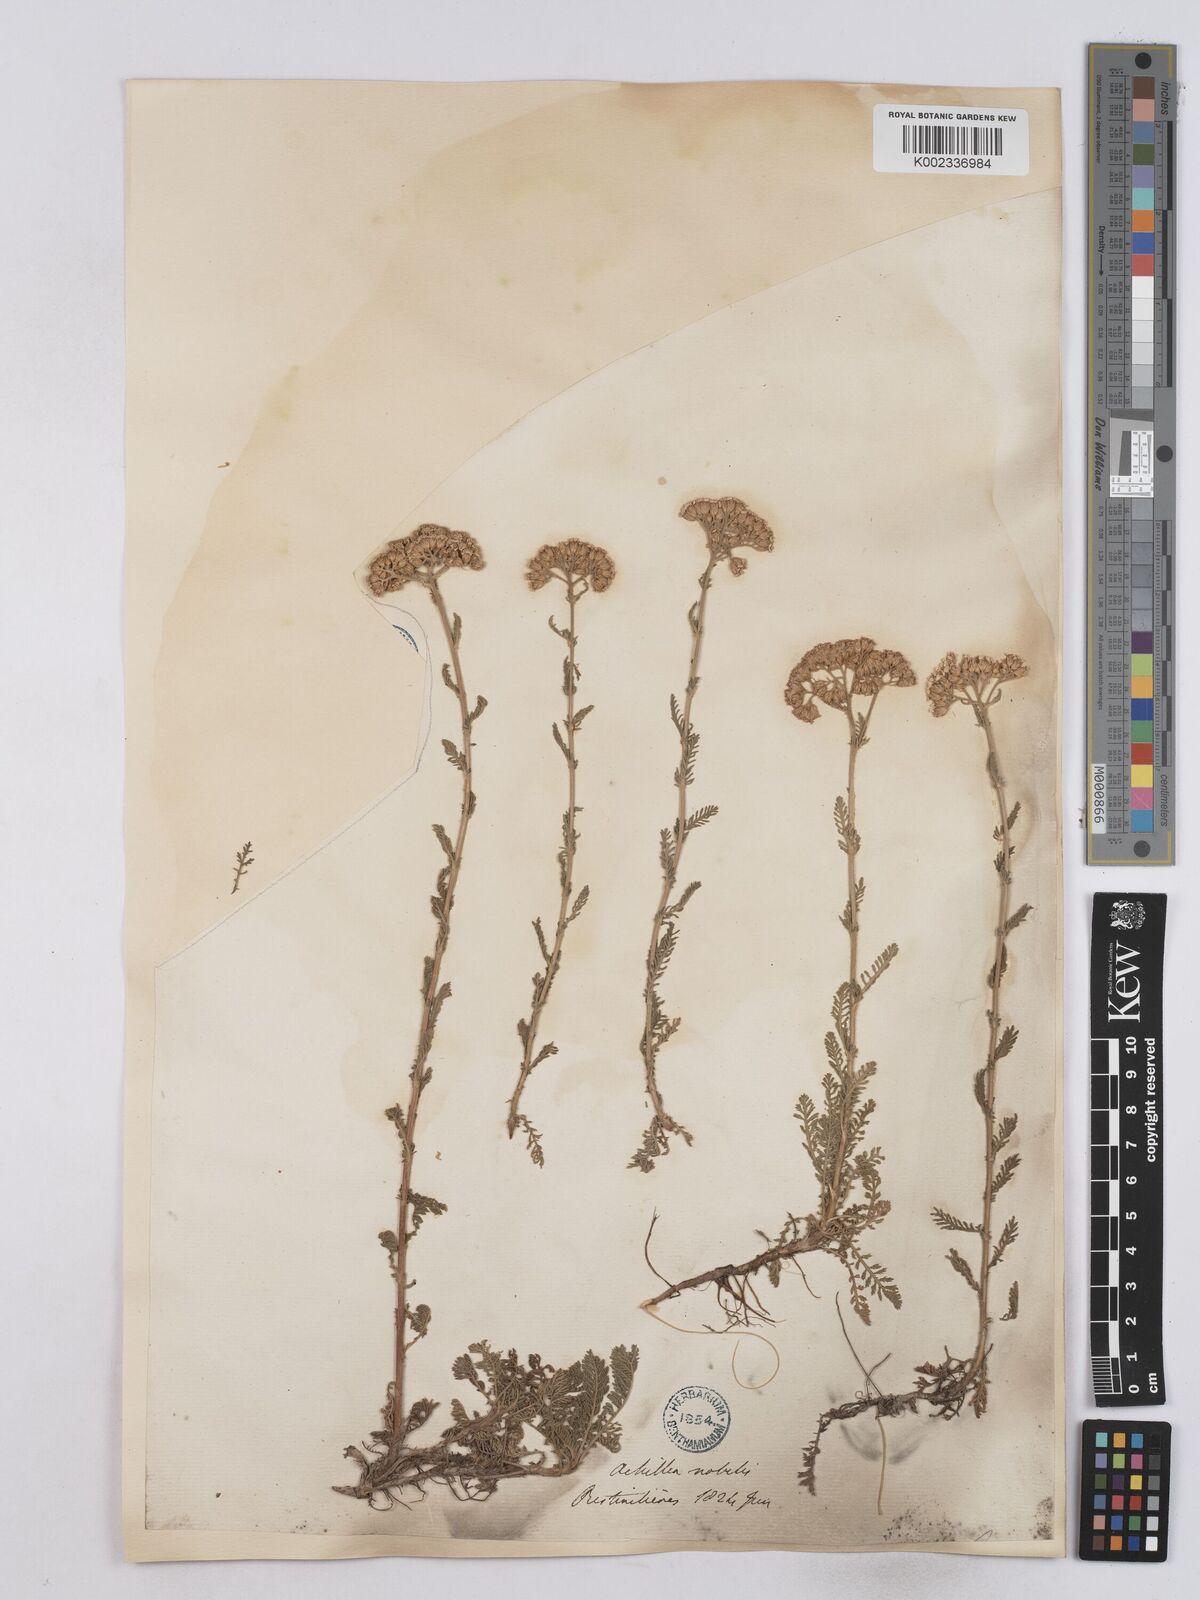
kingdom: Plantae
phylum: Tracheophyta
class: Magnoliopsida
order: Asterales
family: Asteraceae
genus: Achillea
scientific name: Achillea nobilis
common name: Noble yarrow
